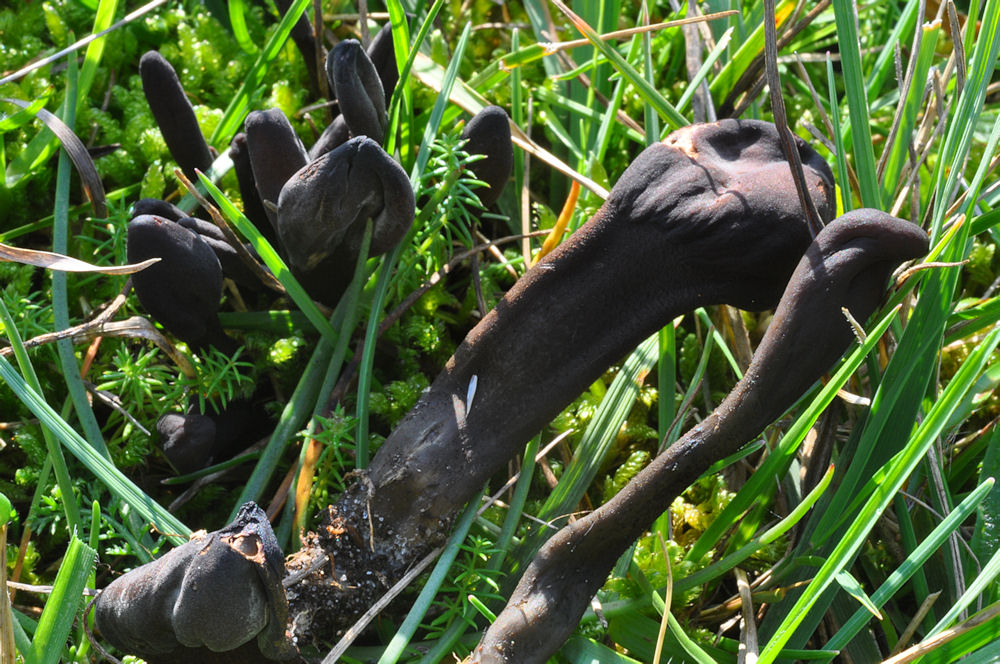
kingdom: Fungi
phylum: Ascomycota
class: Geoglossomycetes
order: Geoglossales
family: Geoglossaceae
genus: Geoglossum
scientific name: Geoglossum atropurpureum
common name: purpursort farvetunge
